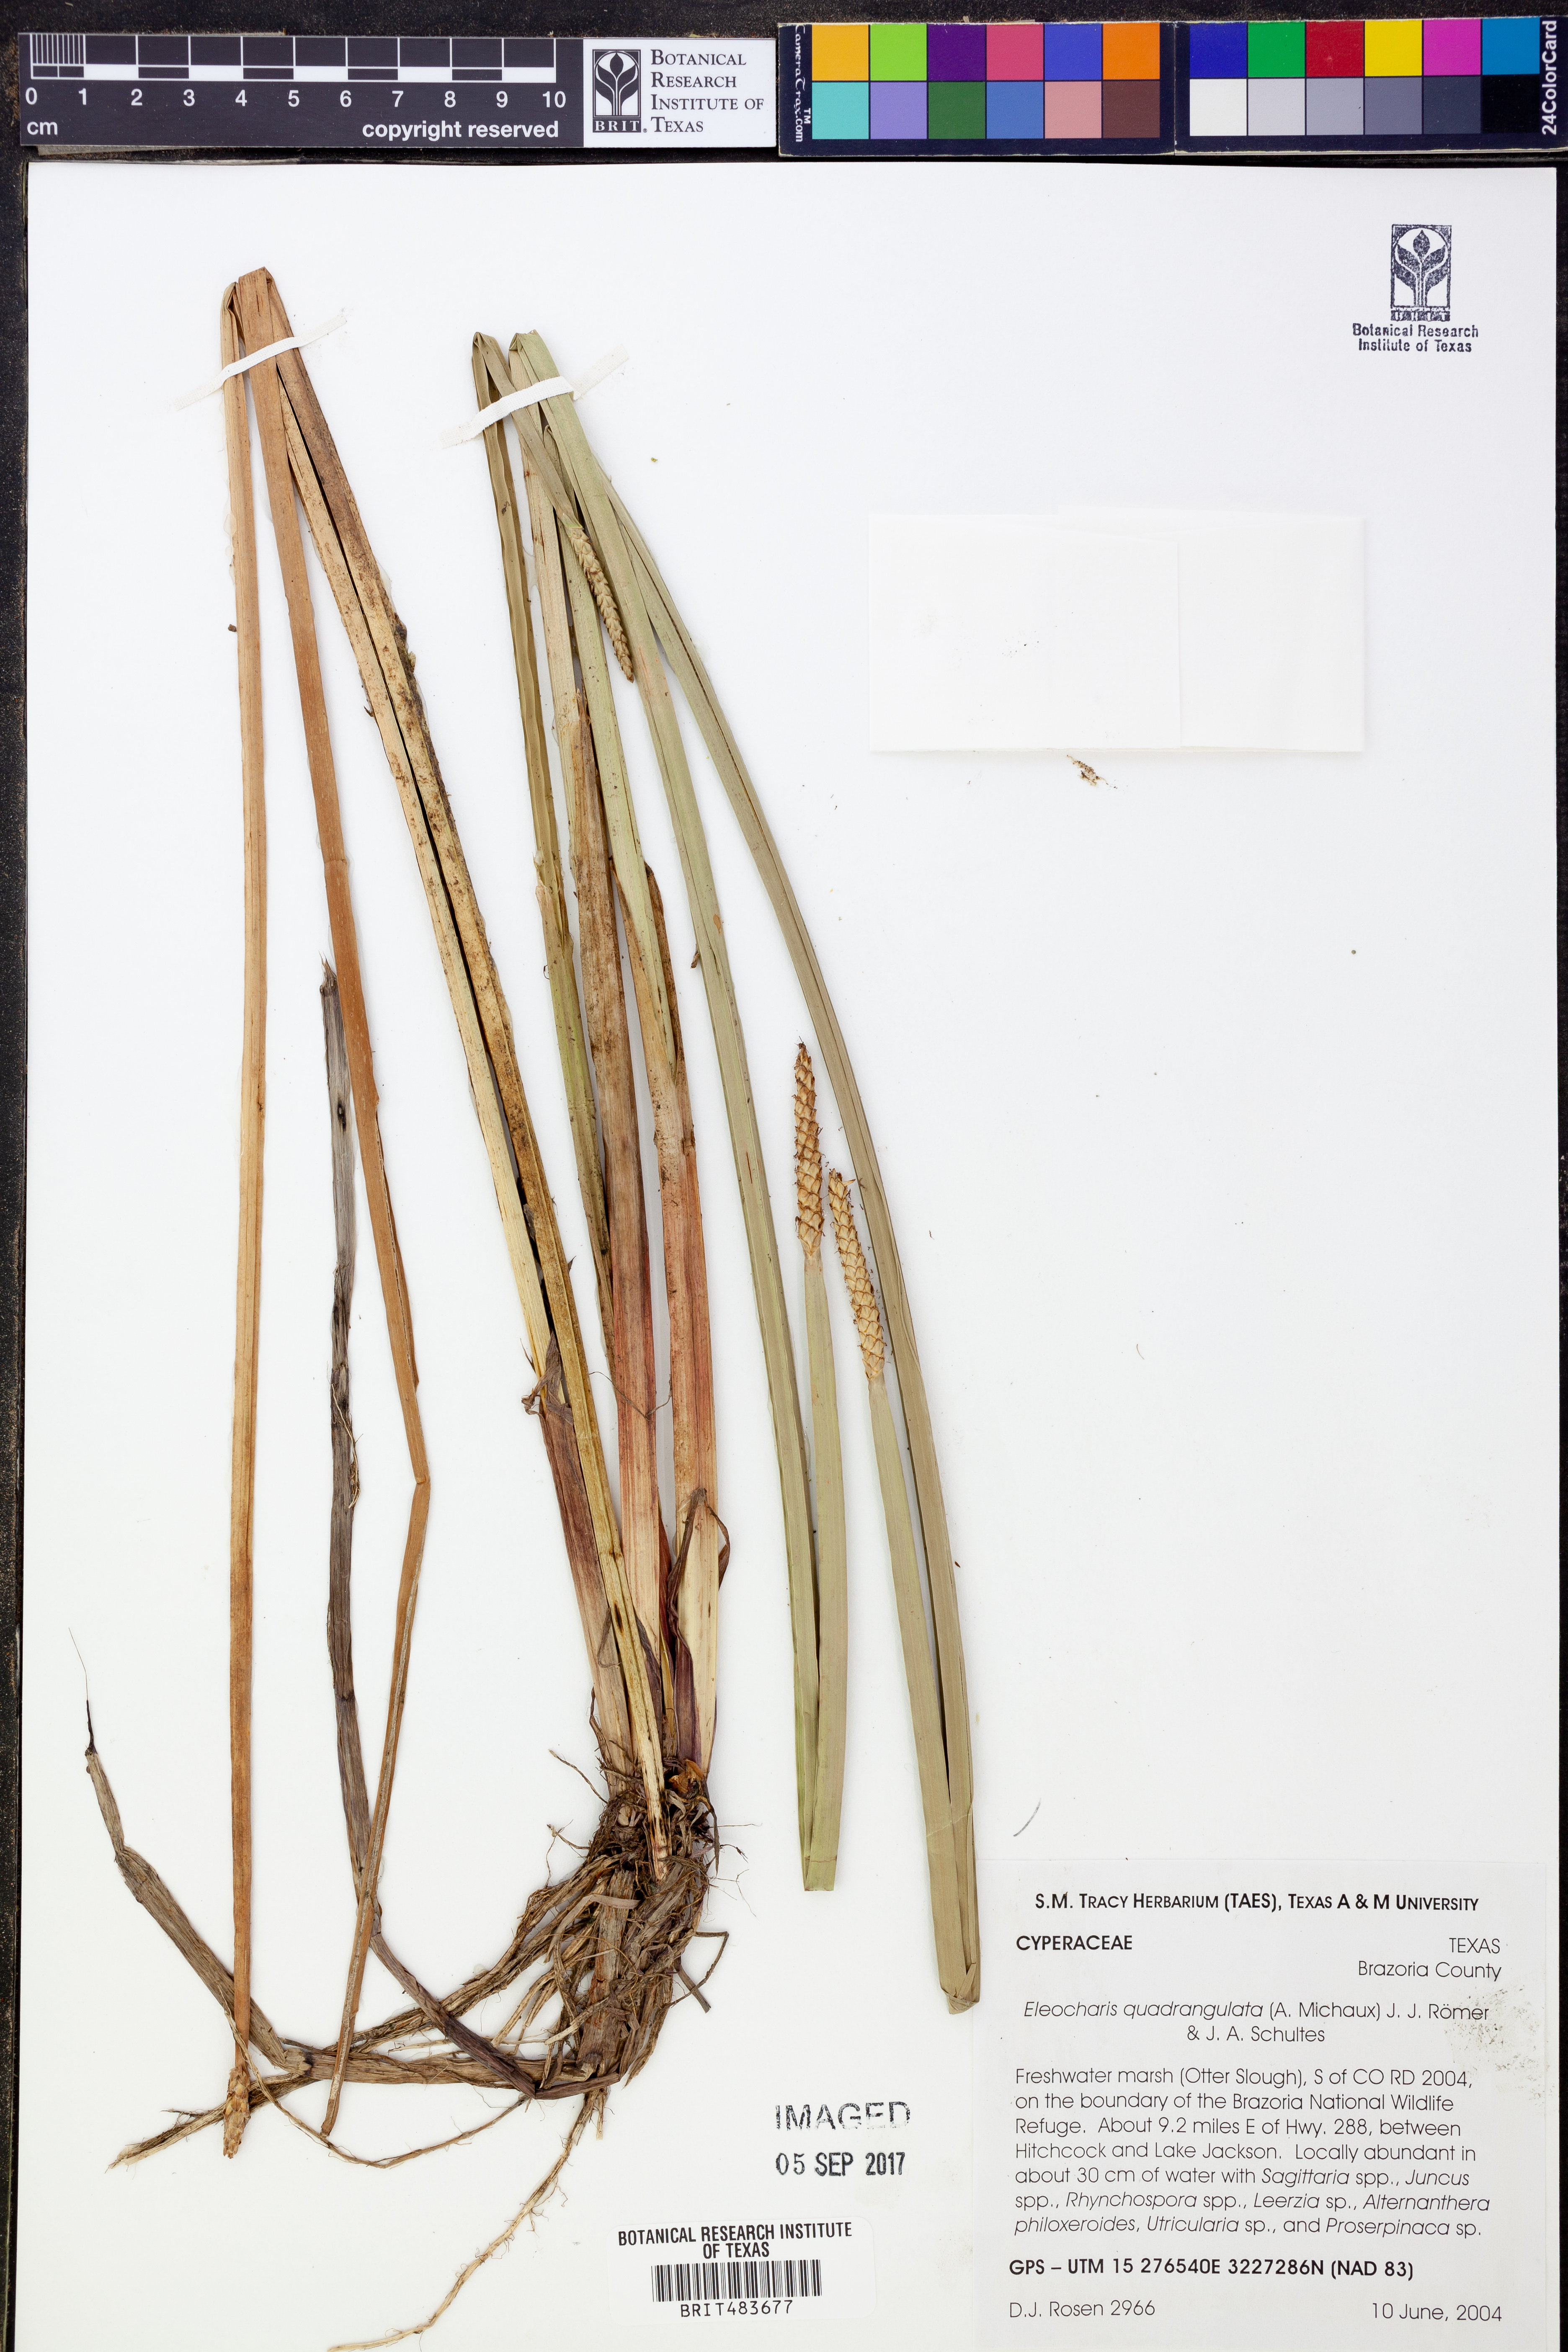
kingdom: Plantae
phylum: Tracheophyta
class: Liliopsida
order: Poales
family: Cyperaceae
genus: Eleocharis
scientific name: Eleocharis quadrangulata
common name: Square-stem spike-rush
